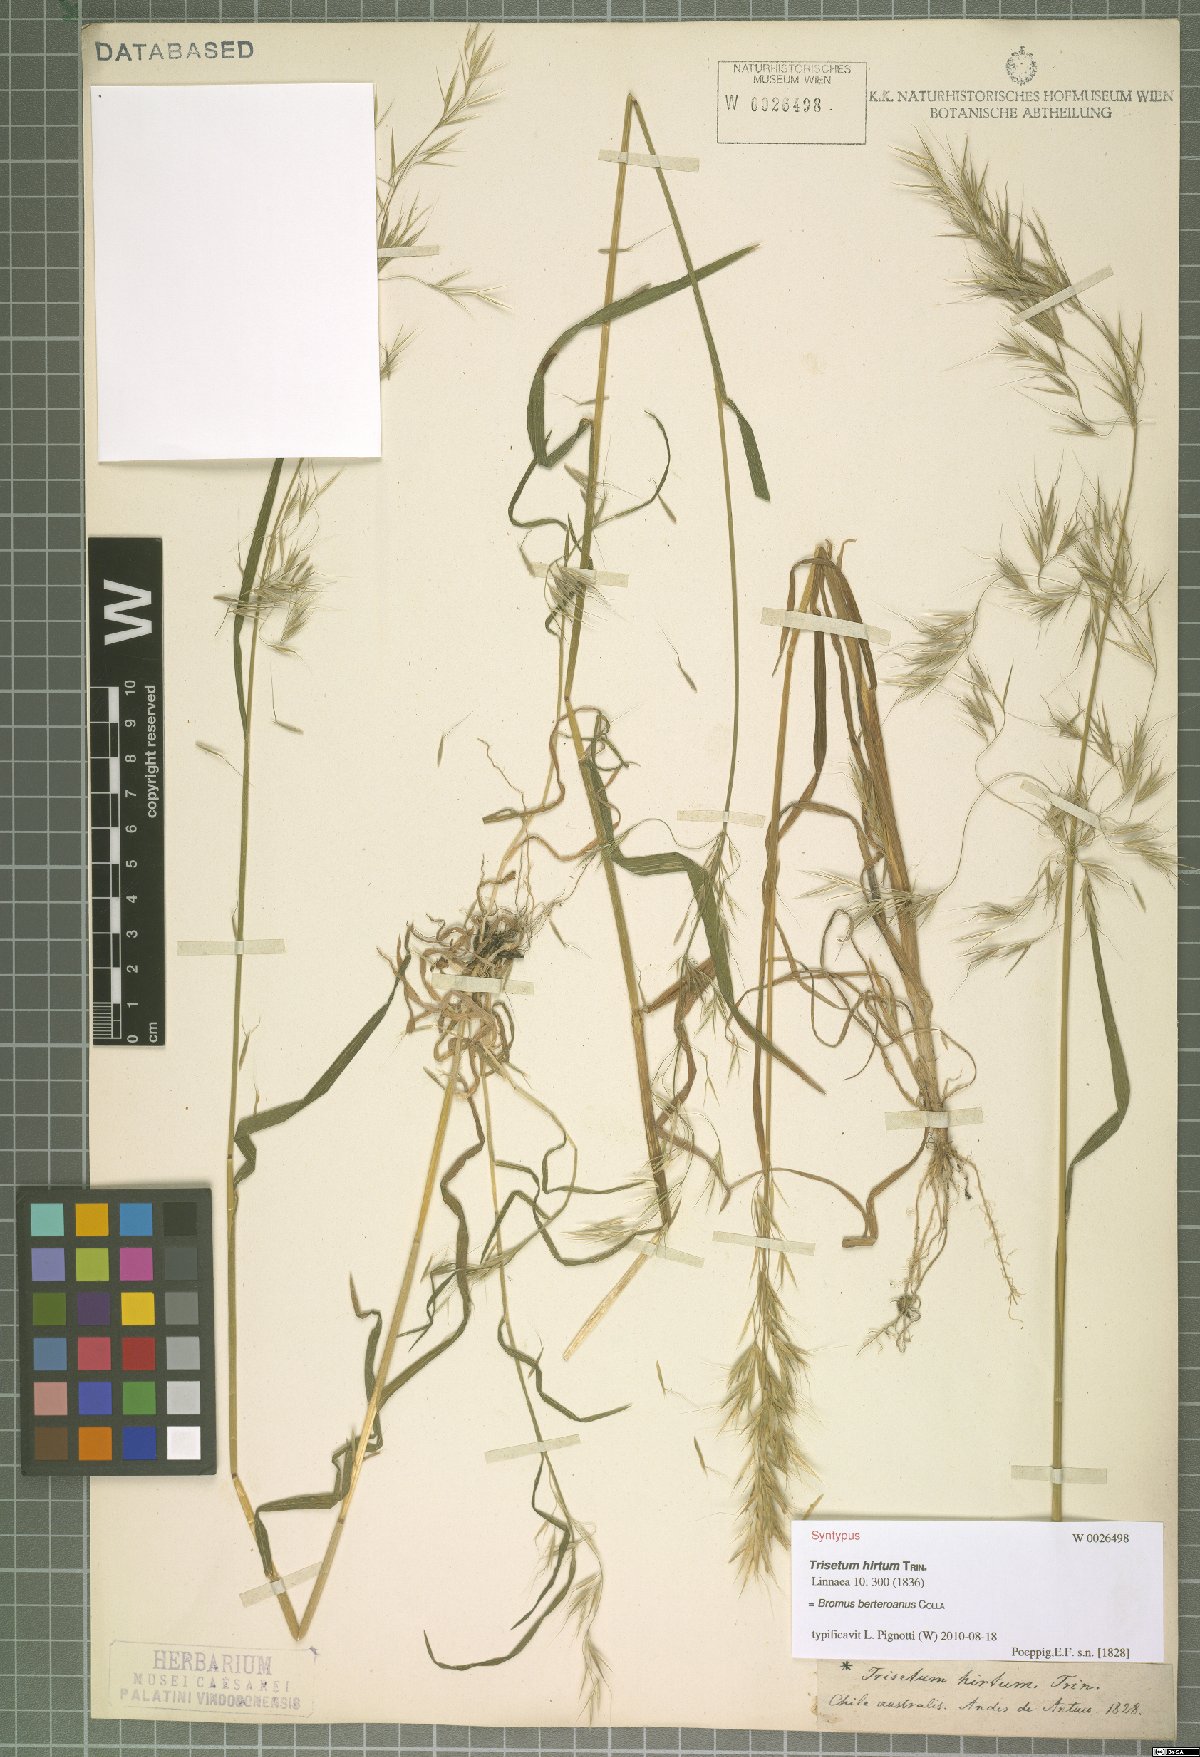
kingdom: Plantae
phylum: Tracheophyta
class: Liliopsida
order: Poales
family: Poaceae
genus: Bromus
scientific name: Bromus berteroanus
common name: Chilean chess
